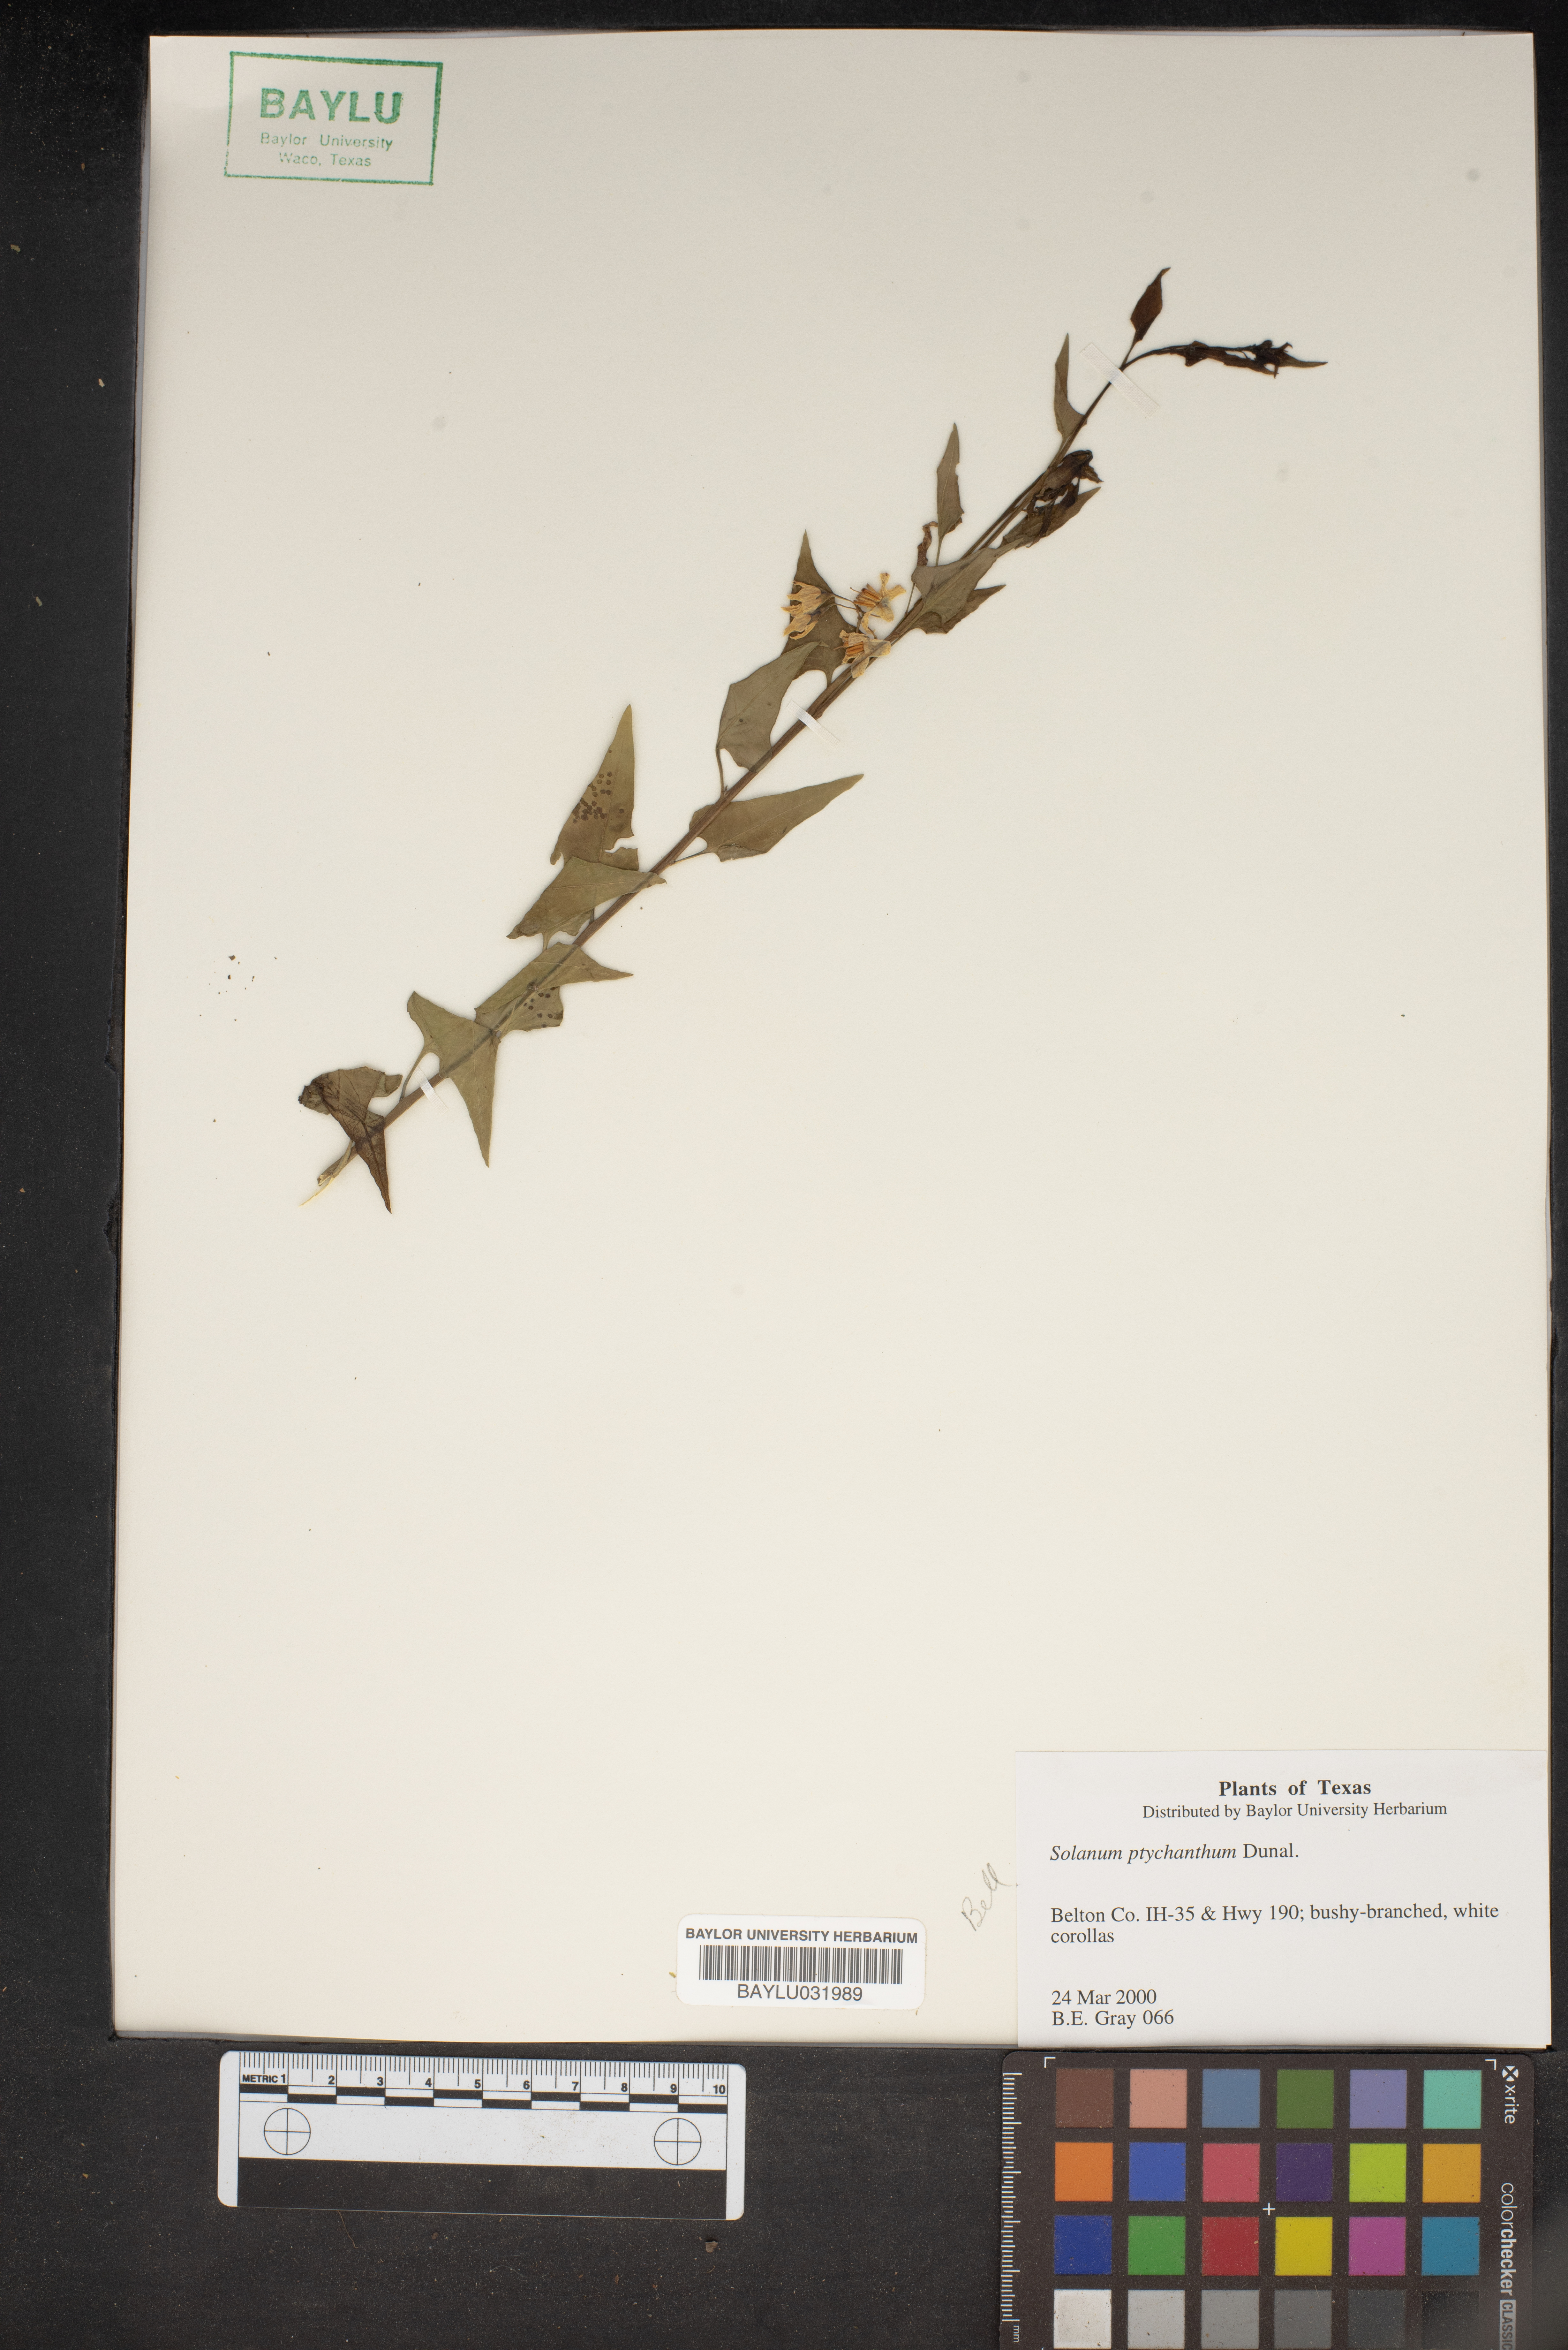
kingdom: Plantae
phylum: Tracheophyta
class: Magnoliopsida
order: Solanales
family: Solanaceae
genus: Solanum
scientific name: Solanum americanum
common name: American black nightshade
